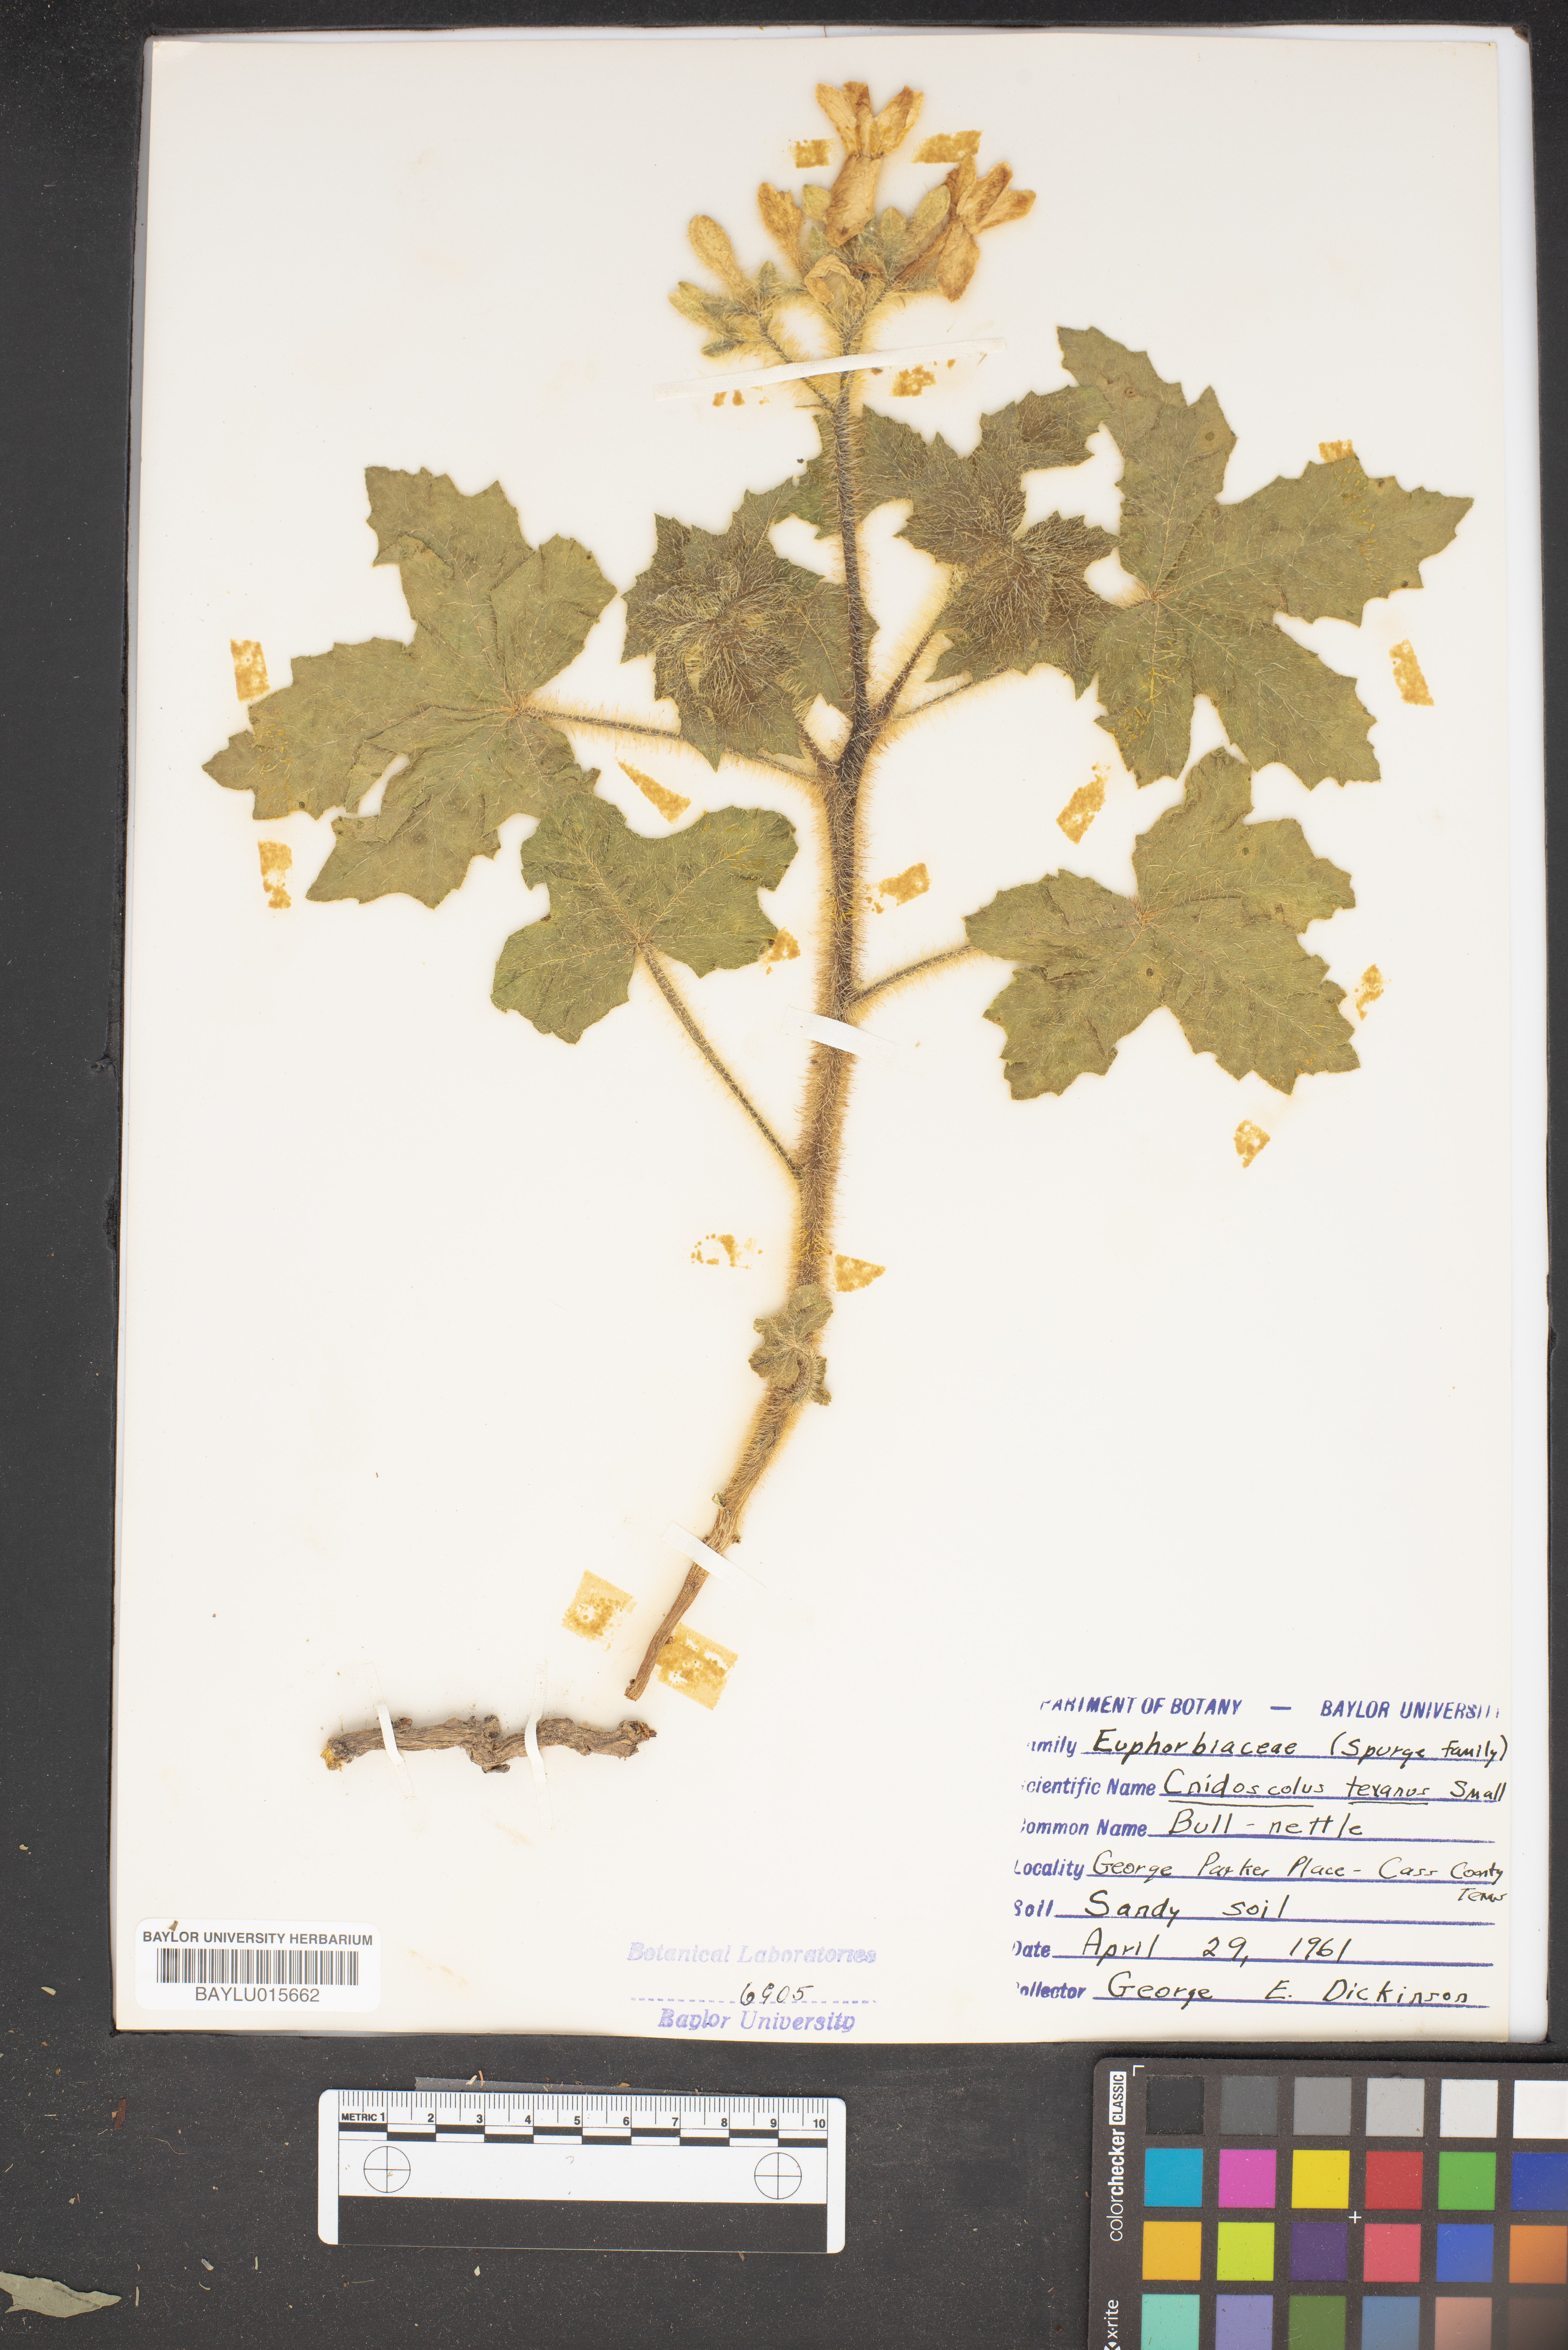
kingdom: Plantae
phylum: Tracheophyta
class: Magnoliopsida
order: Malpighiales
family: Euphorbiaceae
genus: Cnidoscolus
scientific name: Cnidoscolus texanus
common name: Texas bull-nettle
